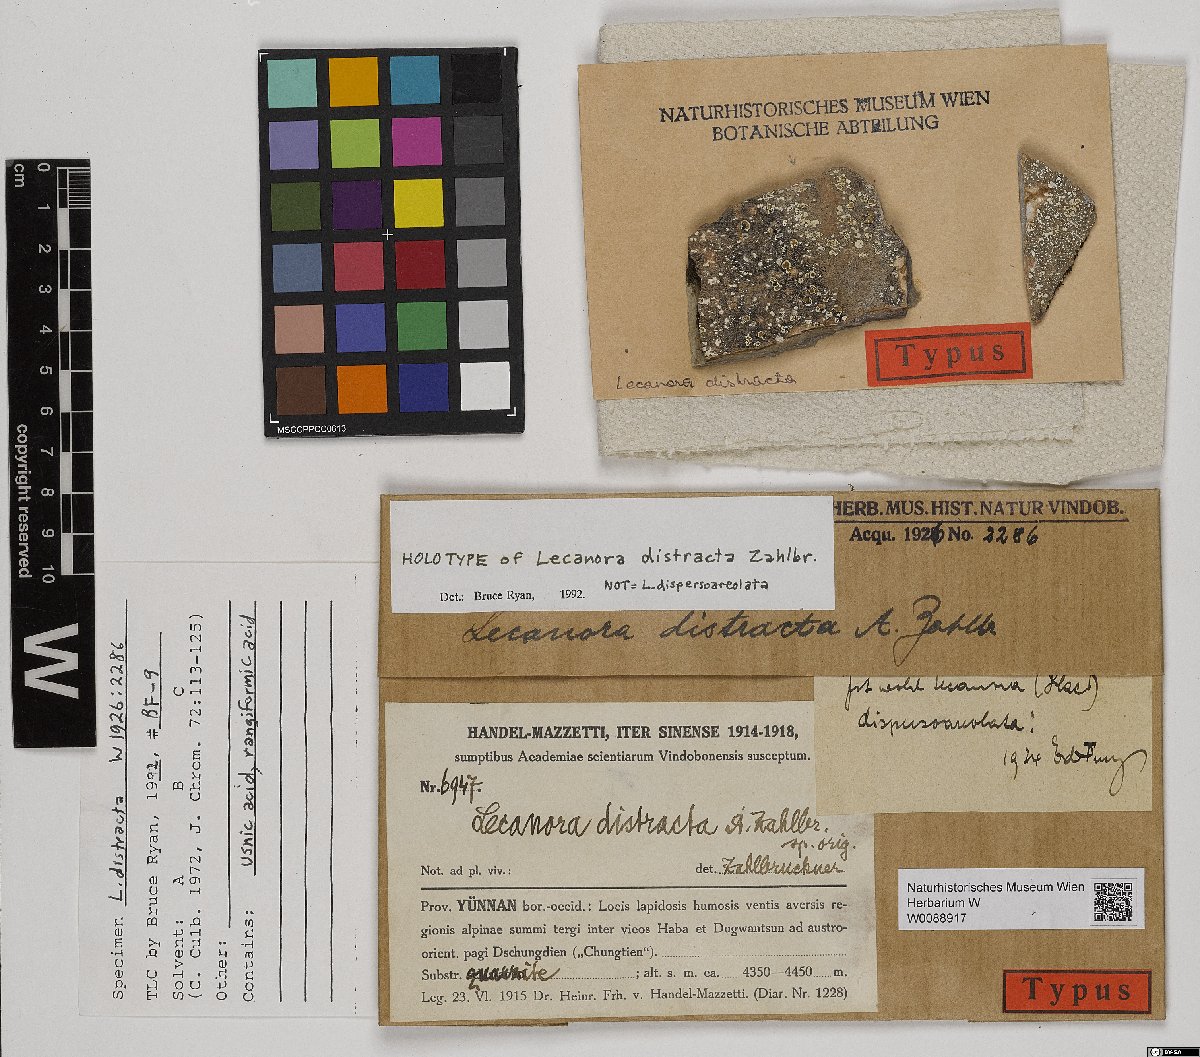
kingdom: Fungi
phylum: Ascomycota
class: Lecanoromycetes
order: Lecanorales
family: Lecanoraceae
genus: Lecanora
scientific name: Lecanora distincta
